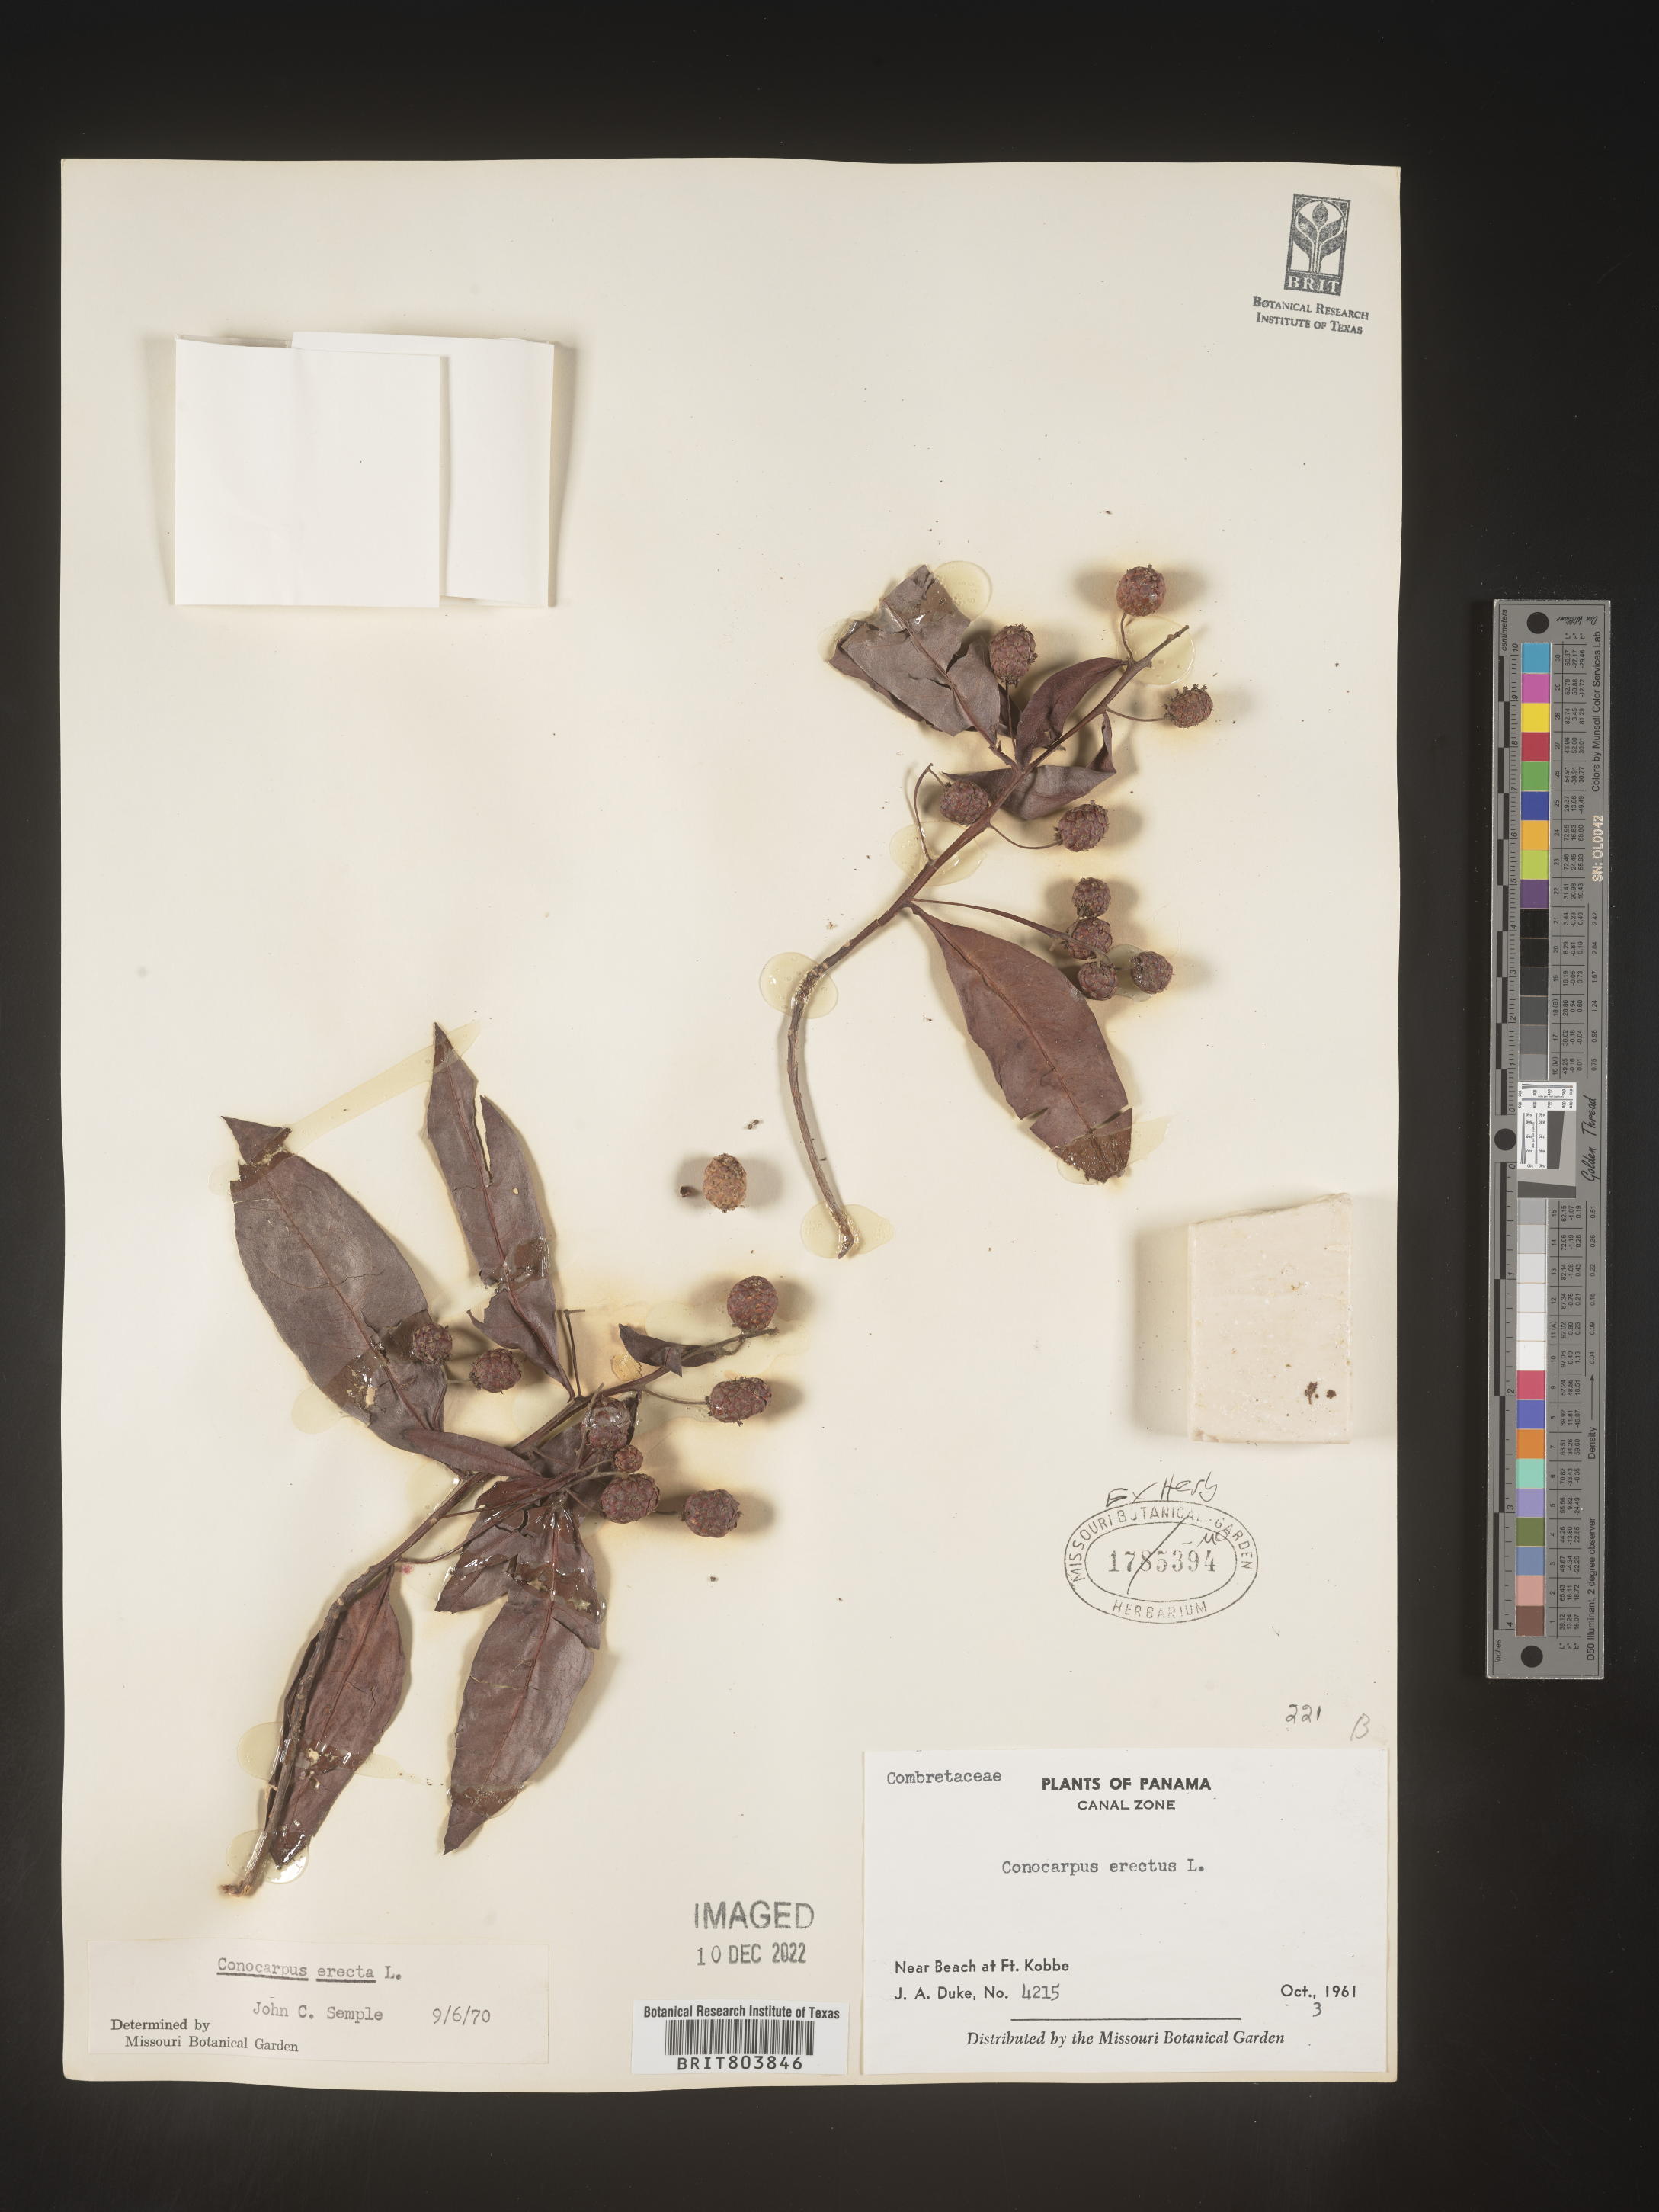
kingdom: Plantae
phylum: Tracheophyta
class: Magnoliopsida
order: Myrtales
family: Combretaceae
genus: Conocarpus
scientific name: Conocarpus
